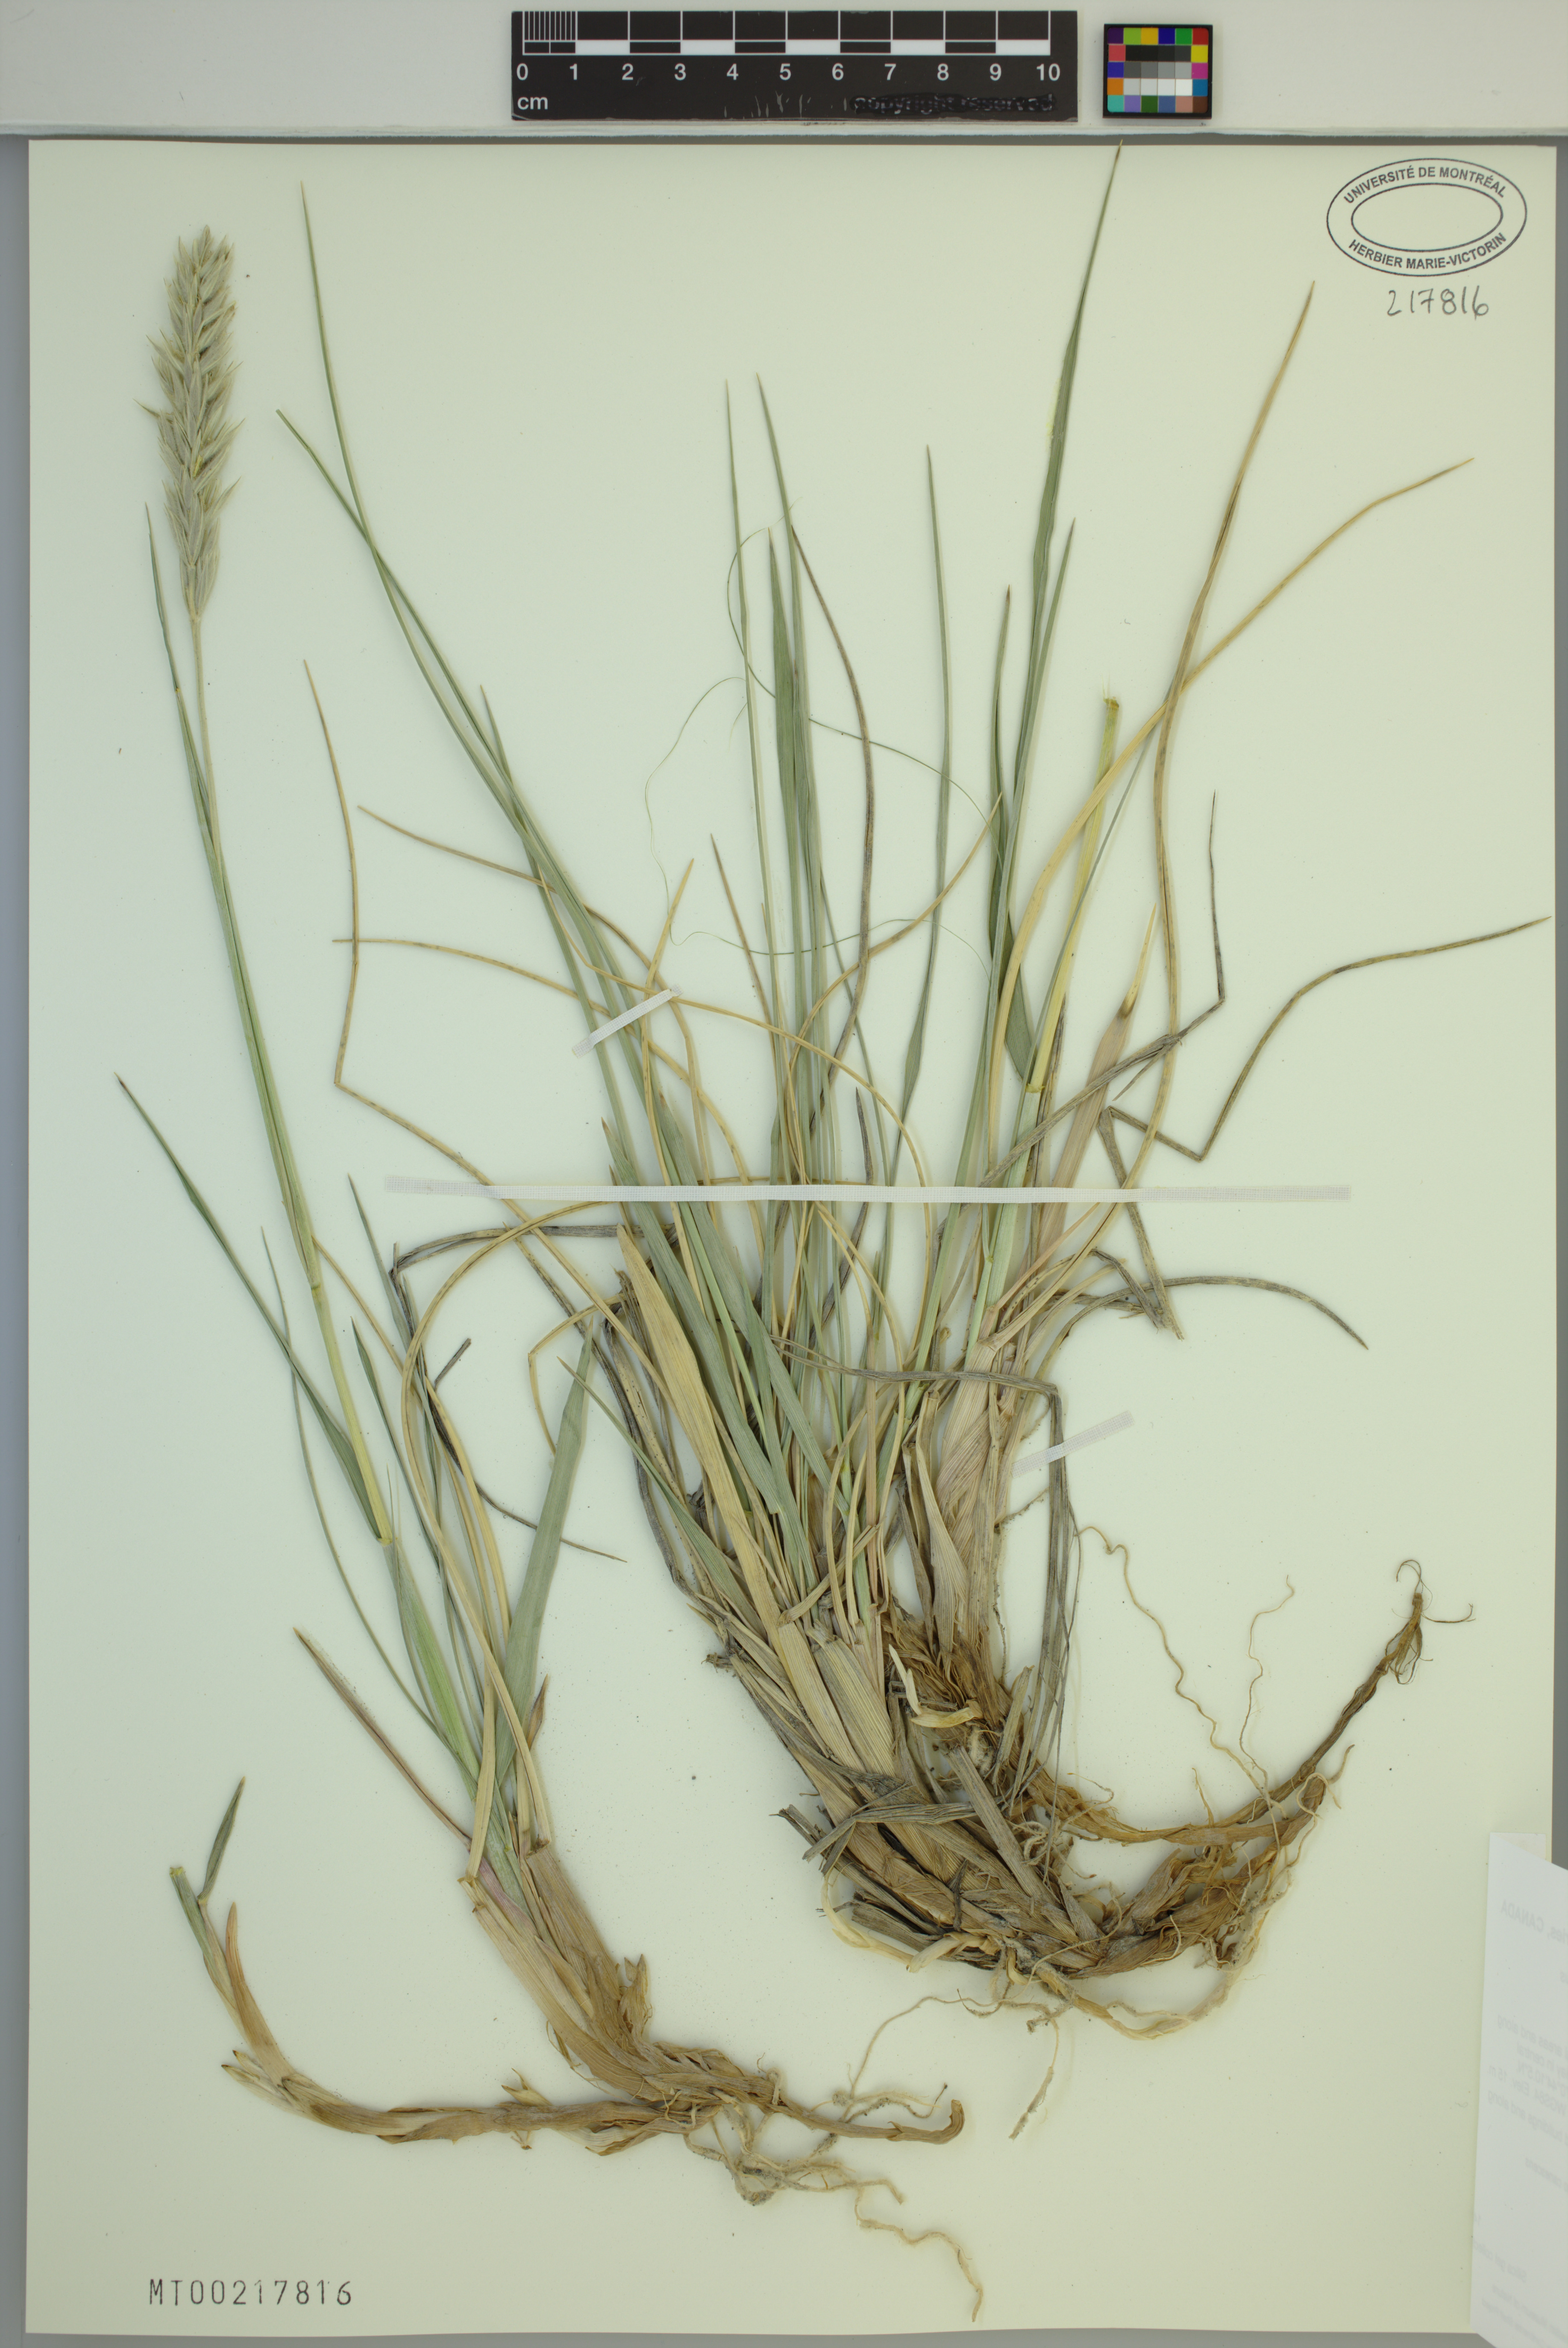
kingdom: Plantae
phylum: Tracheophyta
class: Liliopsida
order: Poales
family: Poaceae
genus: Leymus
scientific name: Leymus villosissimus
